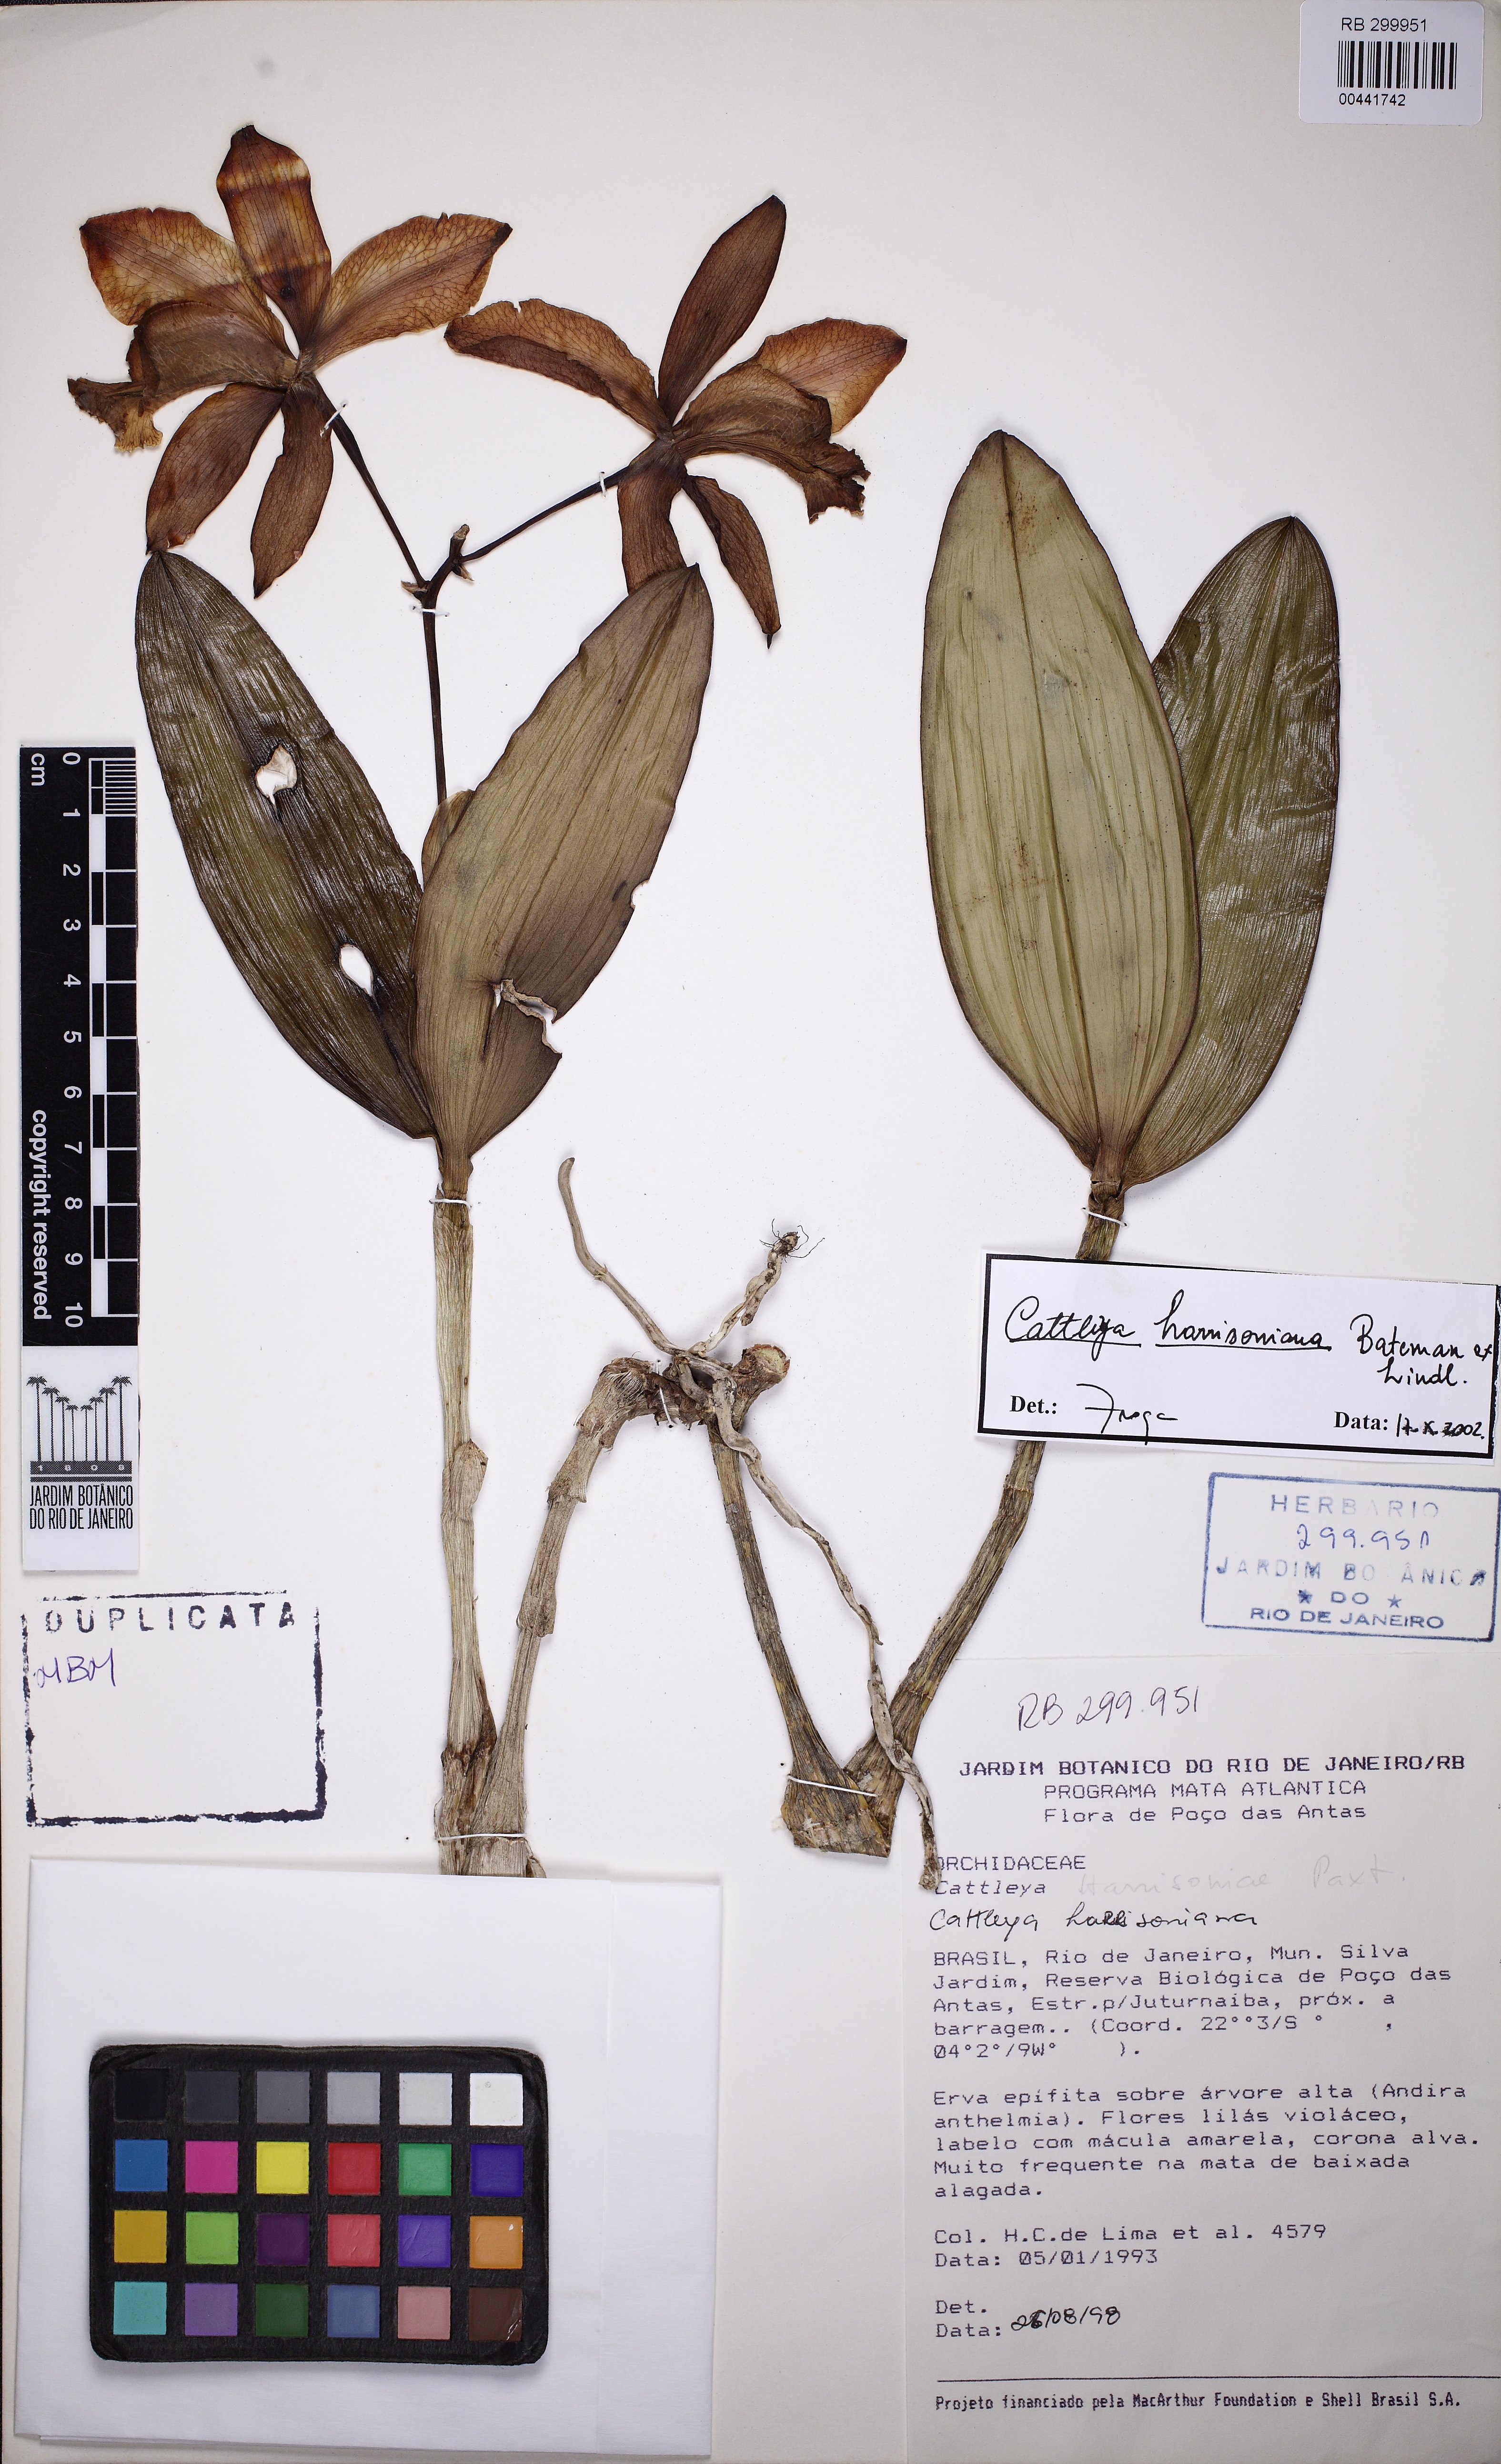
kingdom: Plantae
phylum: Tracheophyta
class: Liliopsida
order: Asparagales
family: Orchidaceae
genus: Cattleya
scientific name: Cattleya harrisoniana
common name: Harrison's cattleya
